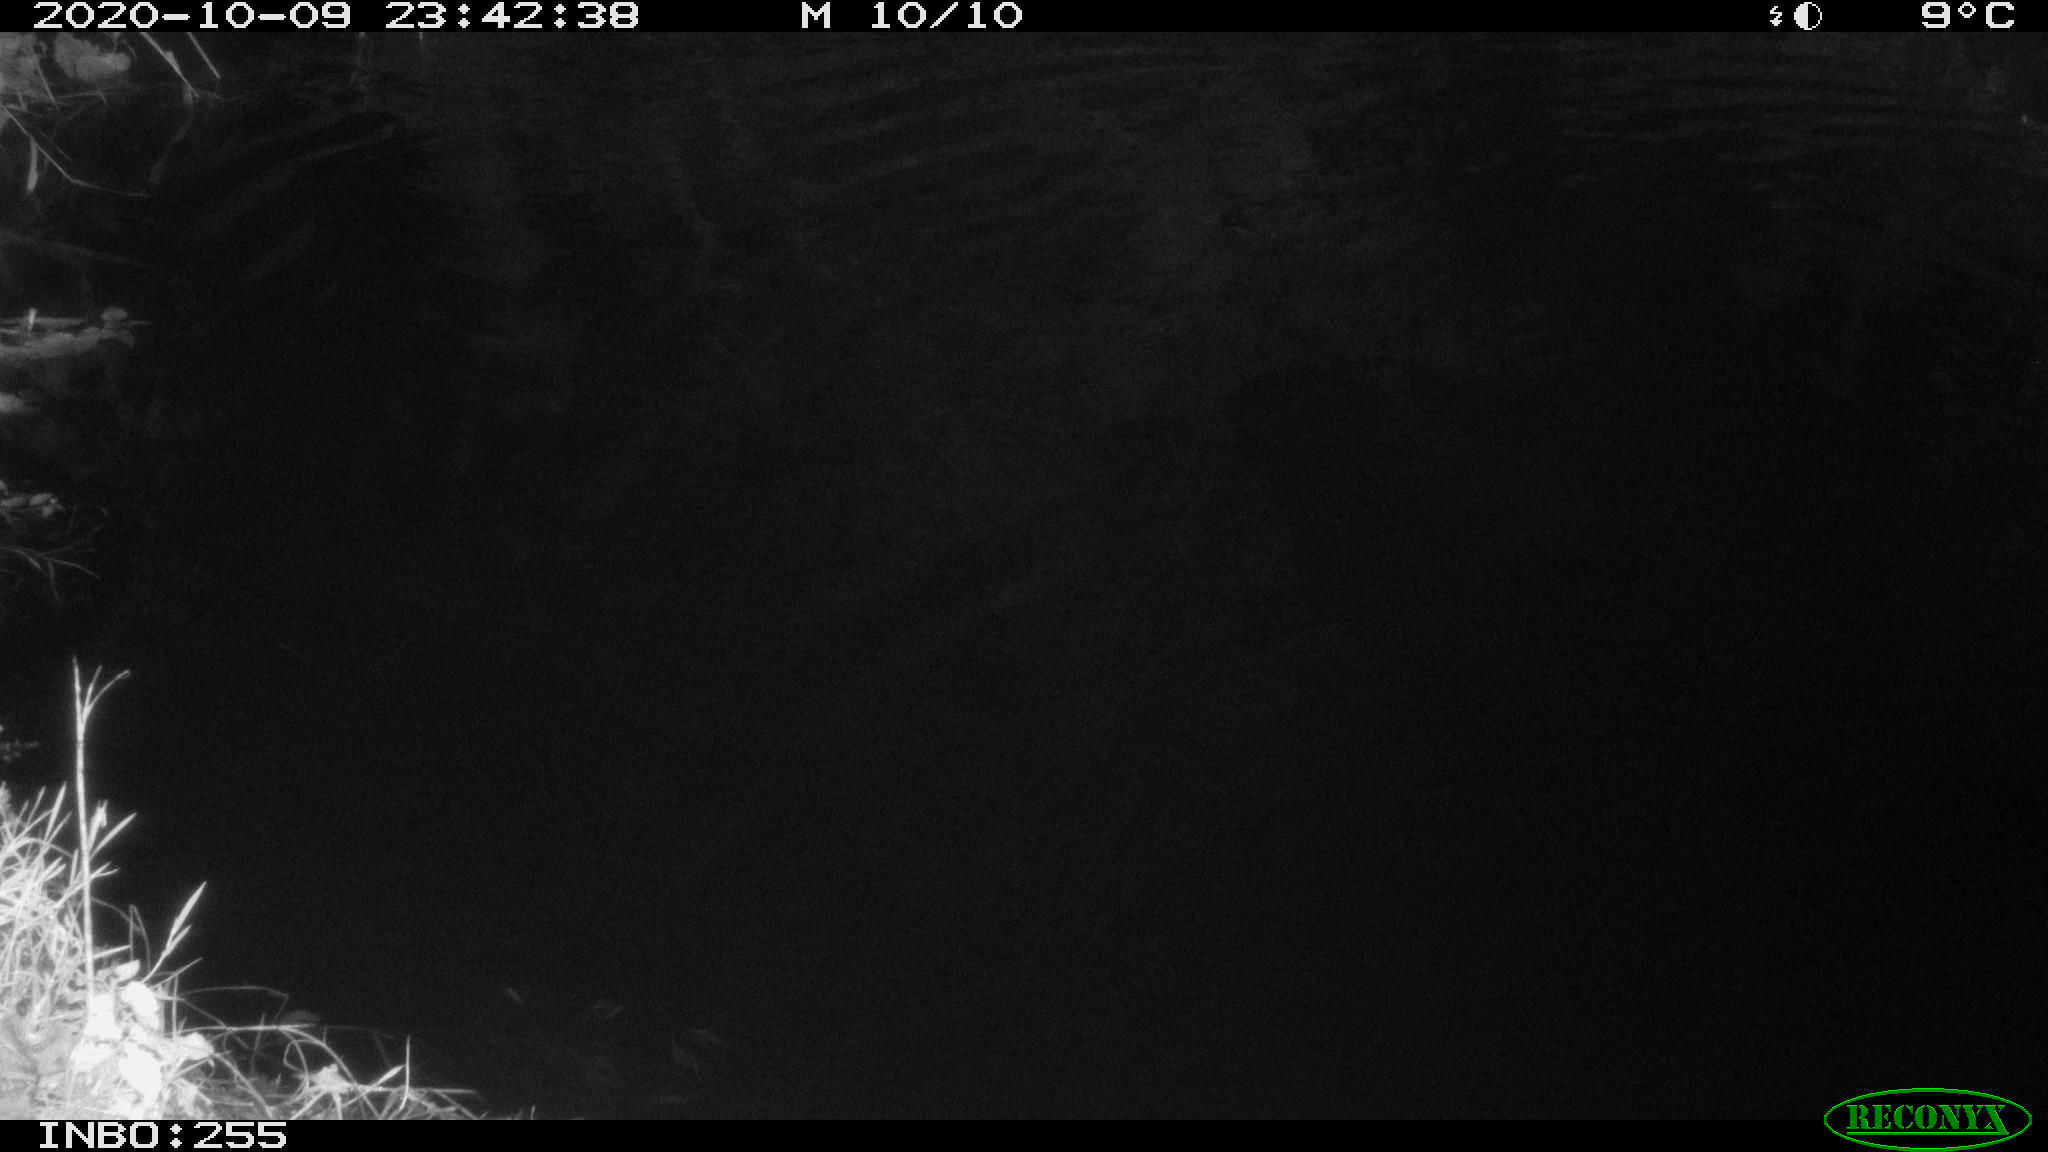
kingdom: Animalia
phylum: Chordata
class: Mammalia
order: Rodentia
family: Muridae
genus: Rattus
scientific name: Rattus norvegicus
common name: Brown rat
